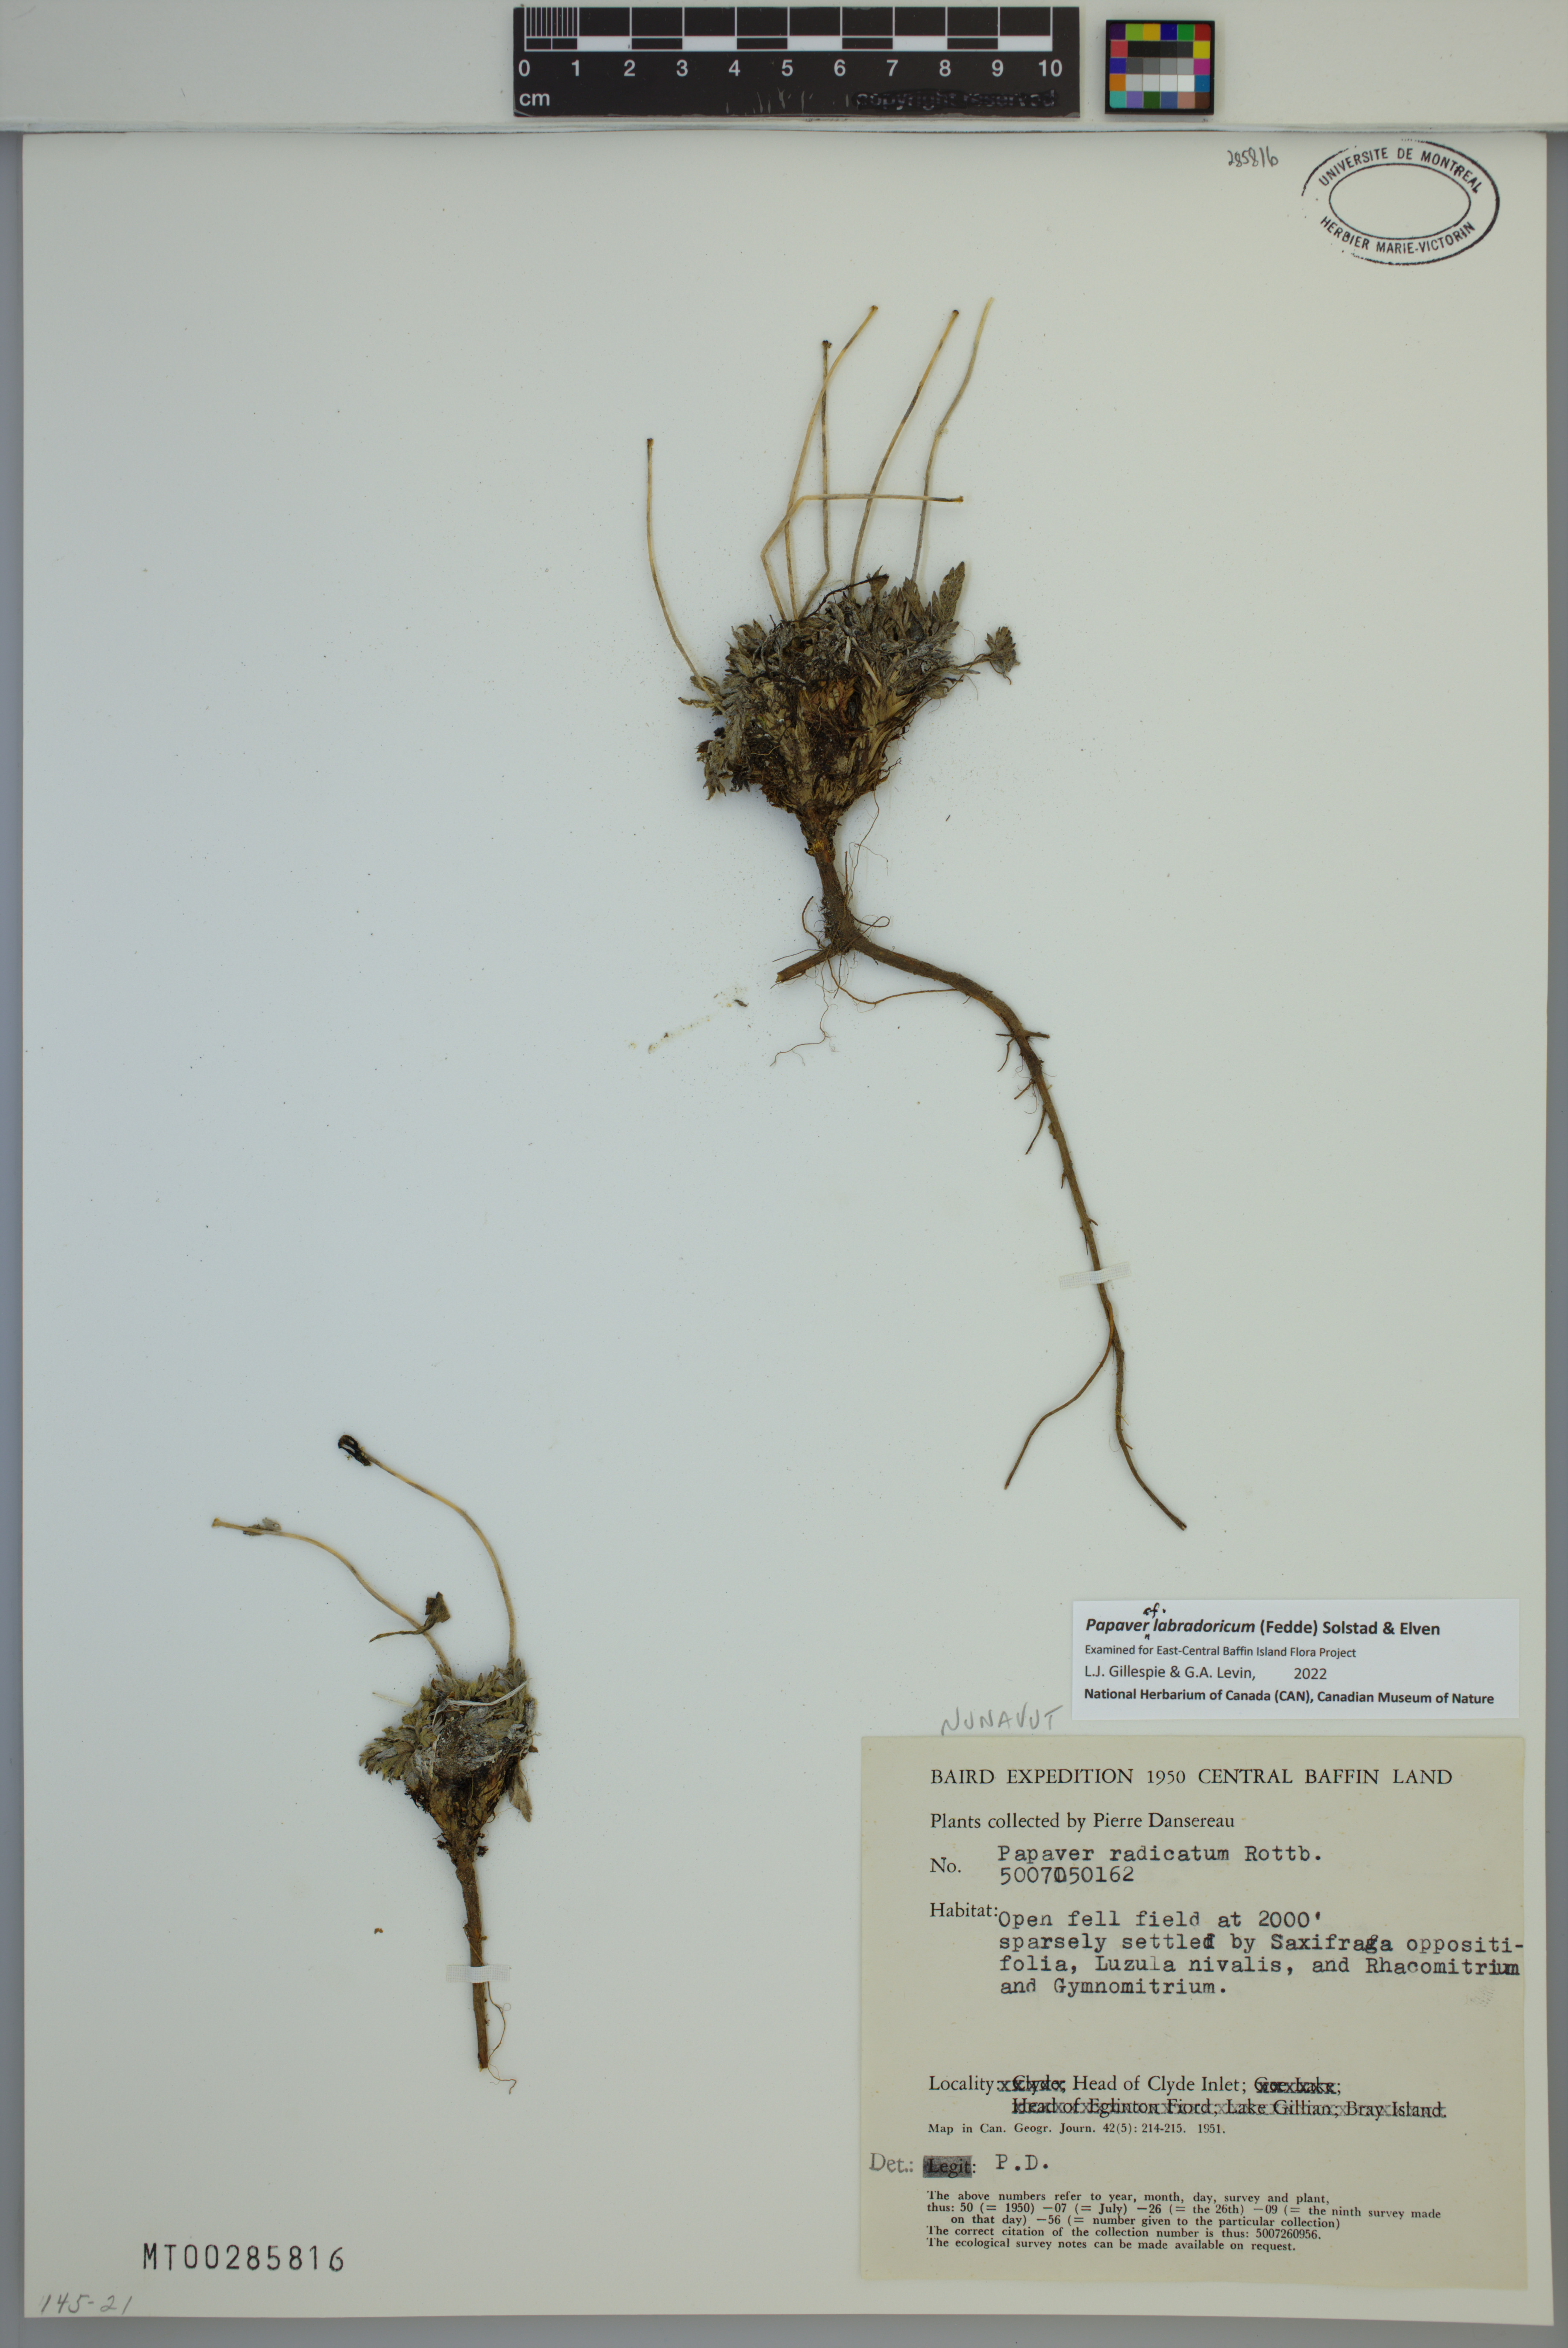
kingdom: Plantae
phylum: Tracheophyta
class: Magnoliopsida
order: Ranunculales
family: Papaveraceae
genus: Papaver
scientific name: Papaver radicatum
